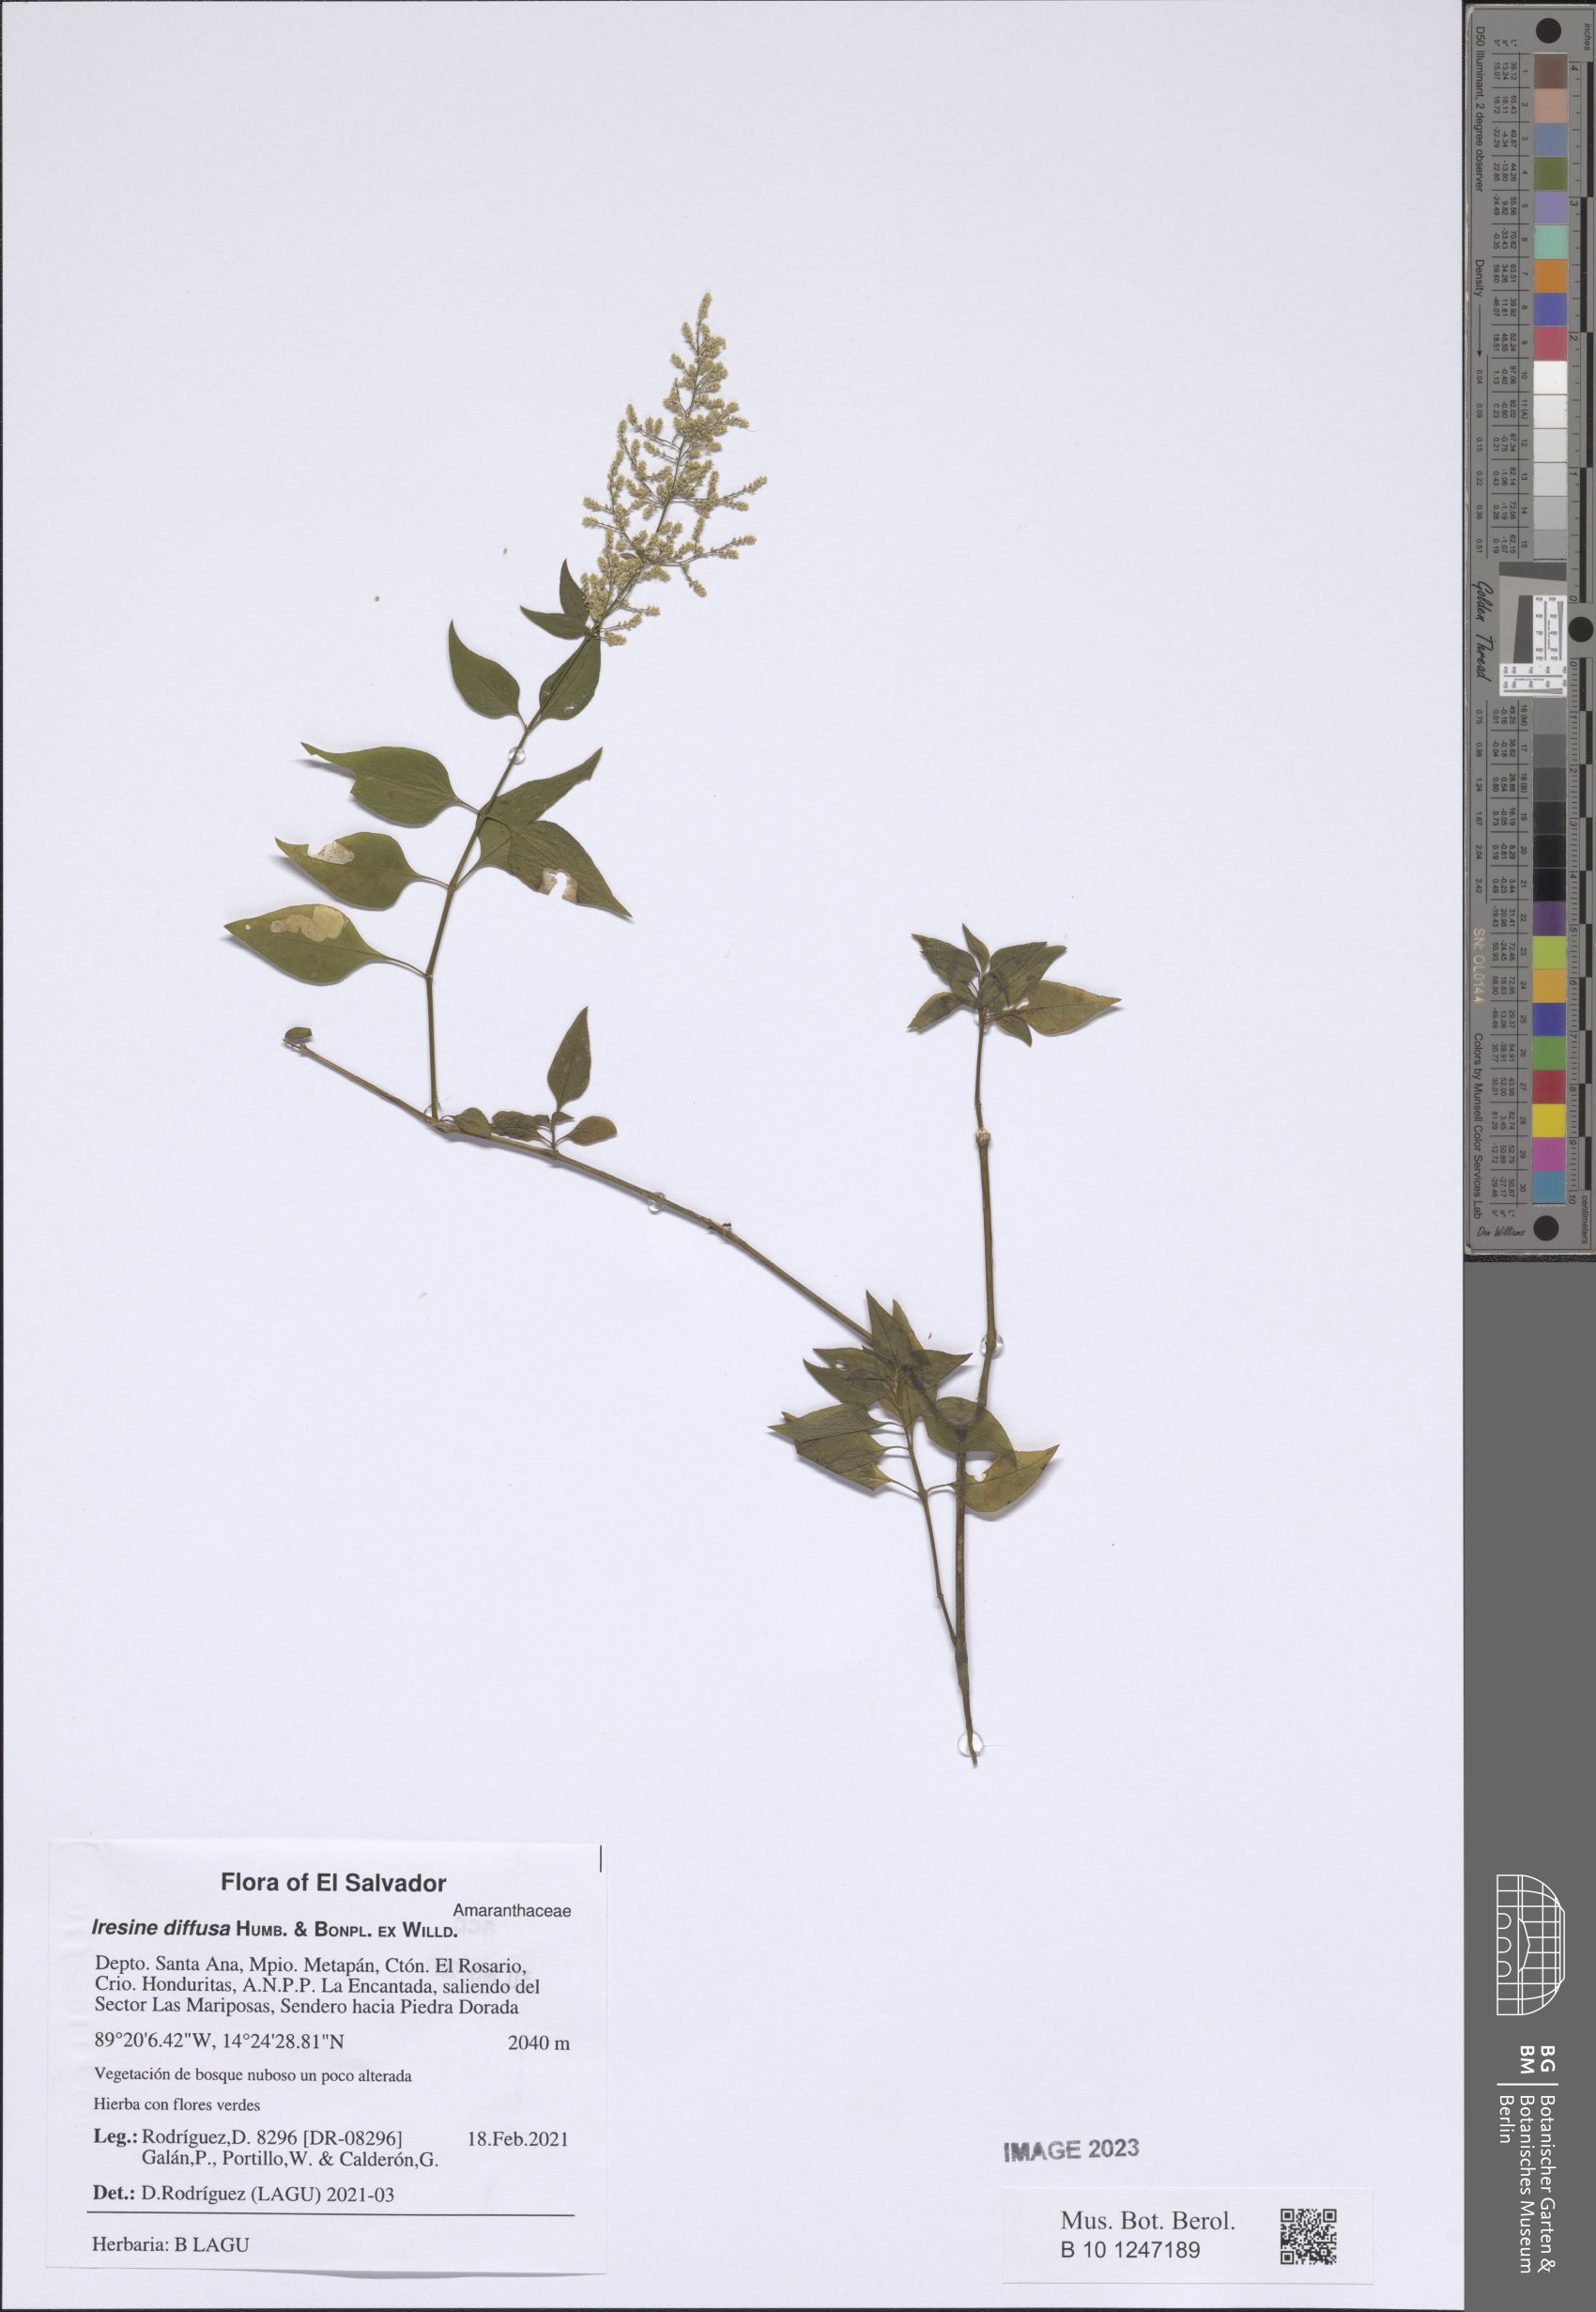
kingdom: Plantae
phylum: Tracheophyta
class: Magnoliopsida
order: Caryophyllales
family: Amaranthaceae
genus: Iresine
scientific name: Iresine diffusa
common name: Juba's-bush
